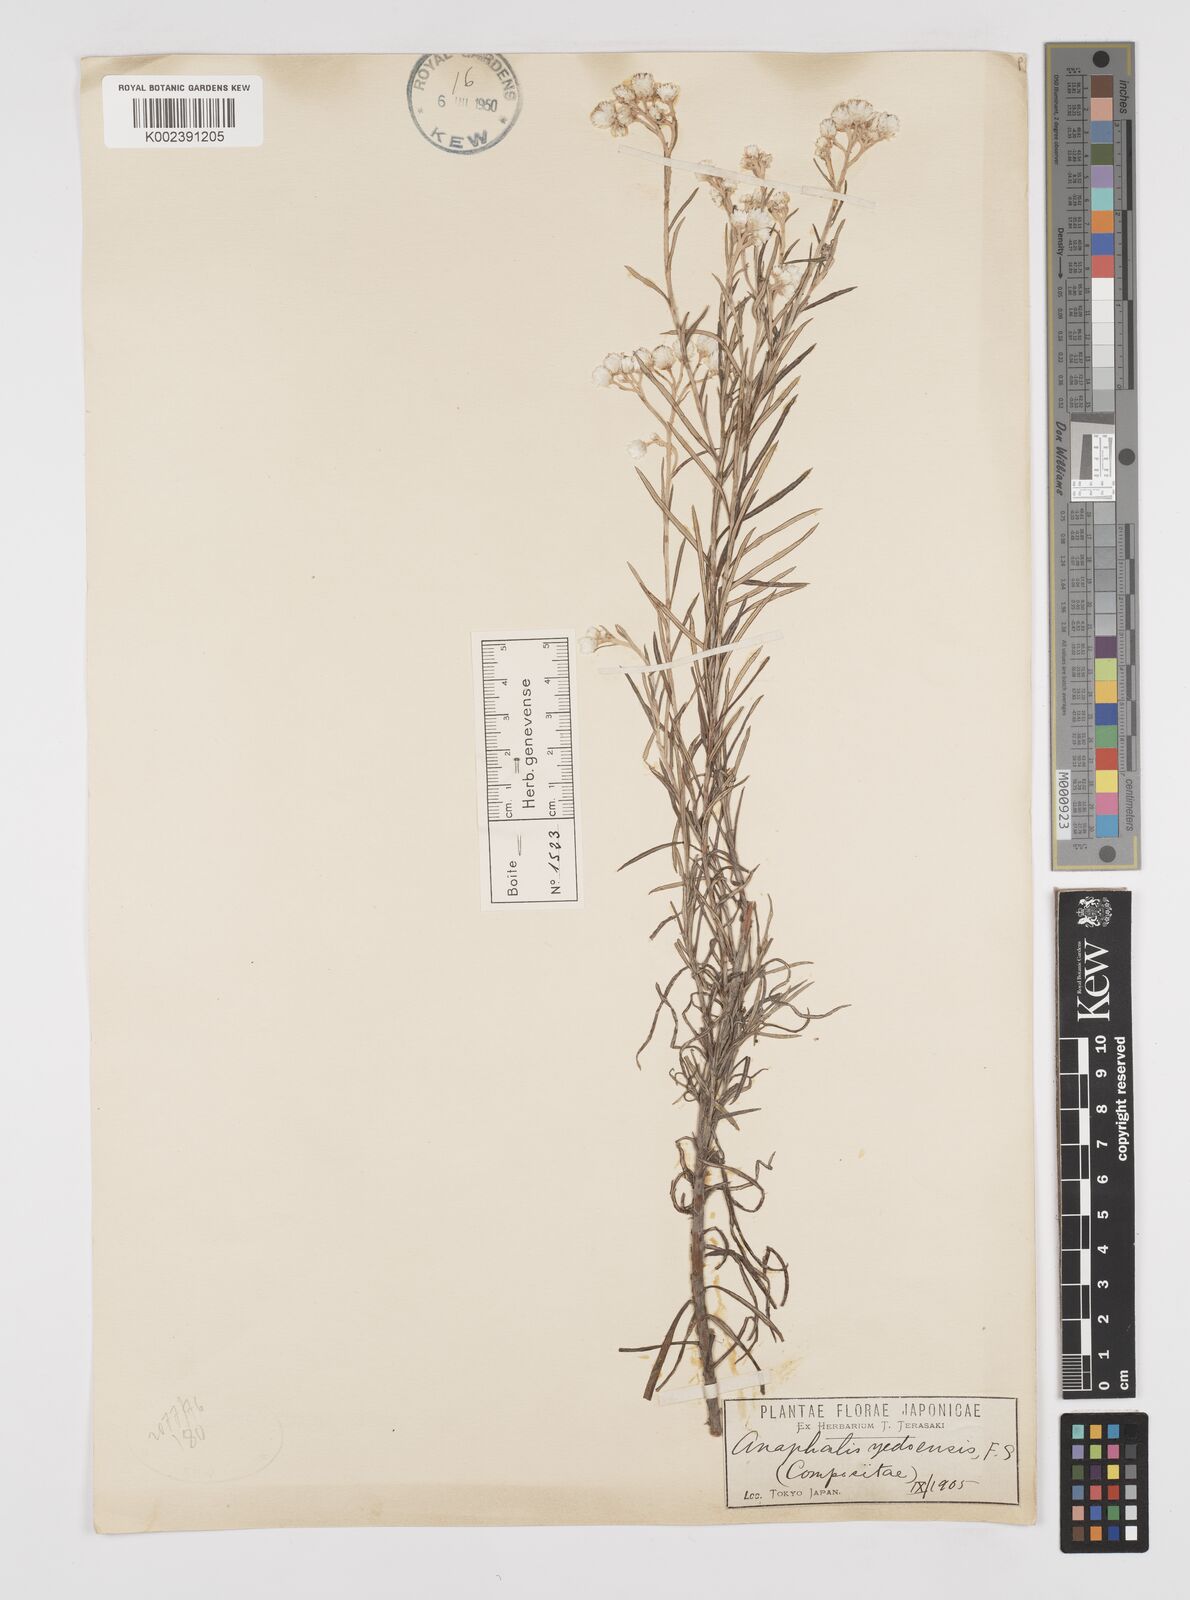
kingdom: Plantae
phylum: Tracheophyta
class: Magnoliopsida
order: Asterales
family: Asteraceae
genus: Anaphalis
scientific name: Anaphalis margaritacea
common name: Pearly everlasting
